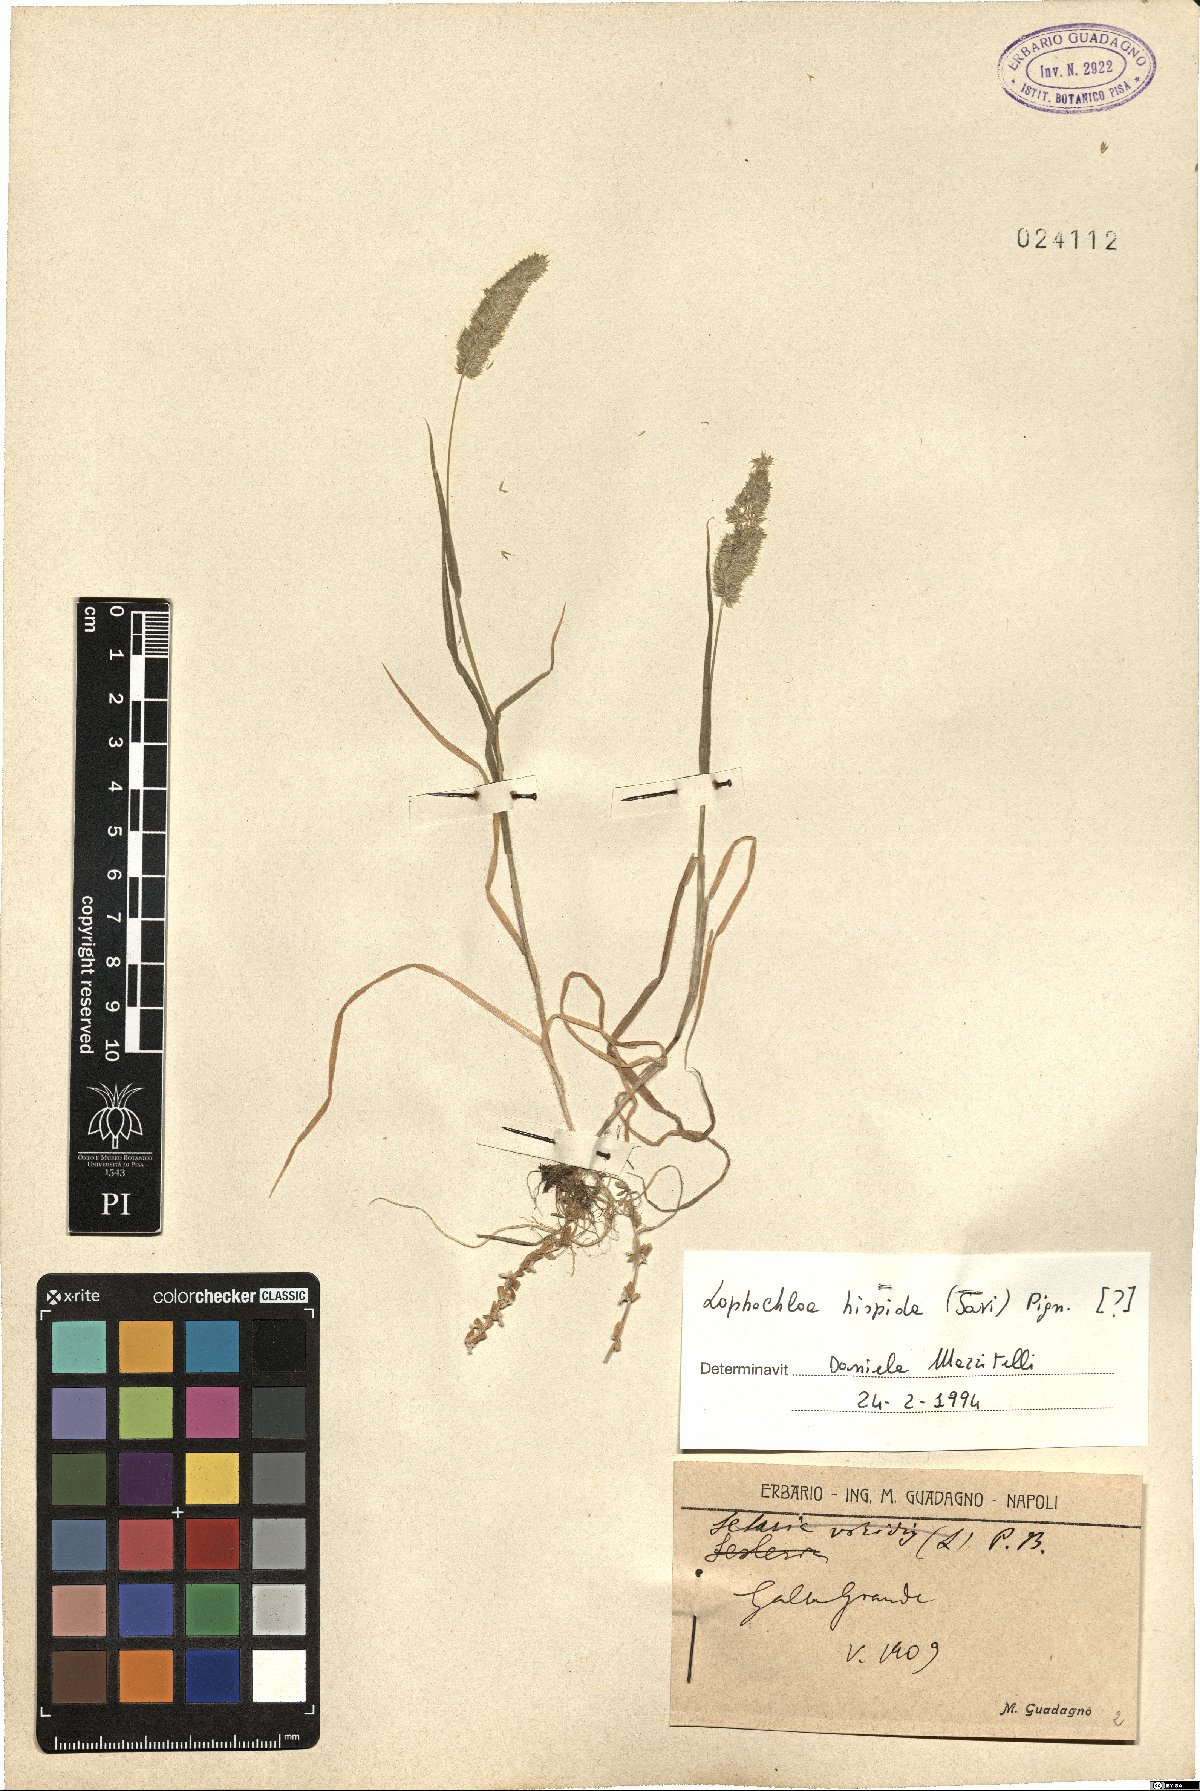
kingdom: Plantae
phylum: Tracheophyta
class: Liliopsida
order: Poales
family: Poaceae
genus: Rostraria
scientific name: Rostraria hispida
